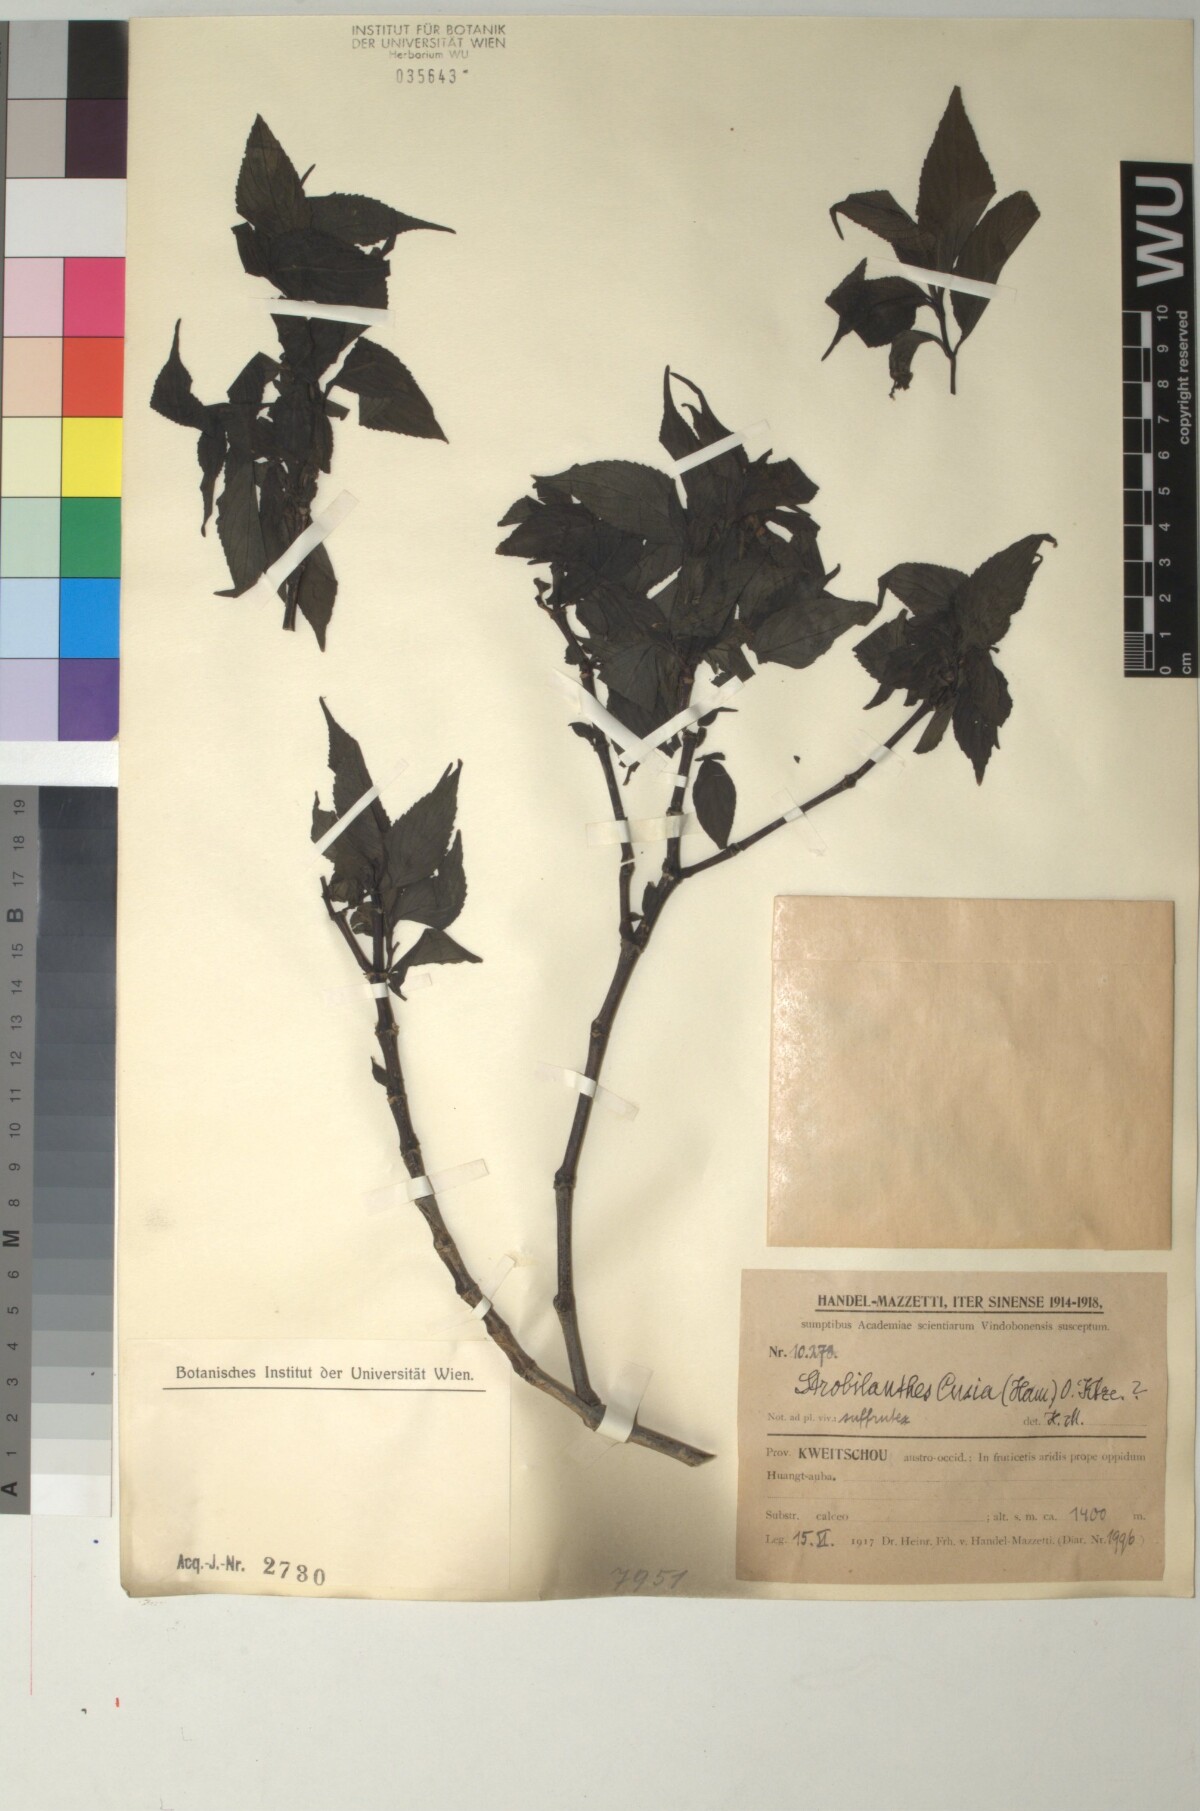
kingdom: Plantae
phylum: Tracheophyta
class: Magnoliopsida
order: Lamiales
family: Acanthaceae
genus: Strobilanthes
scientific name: Strobilanthes cusia
